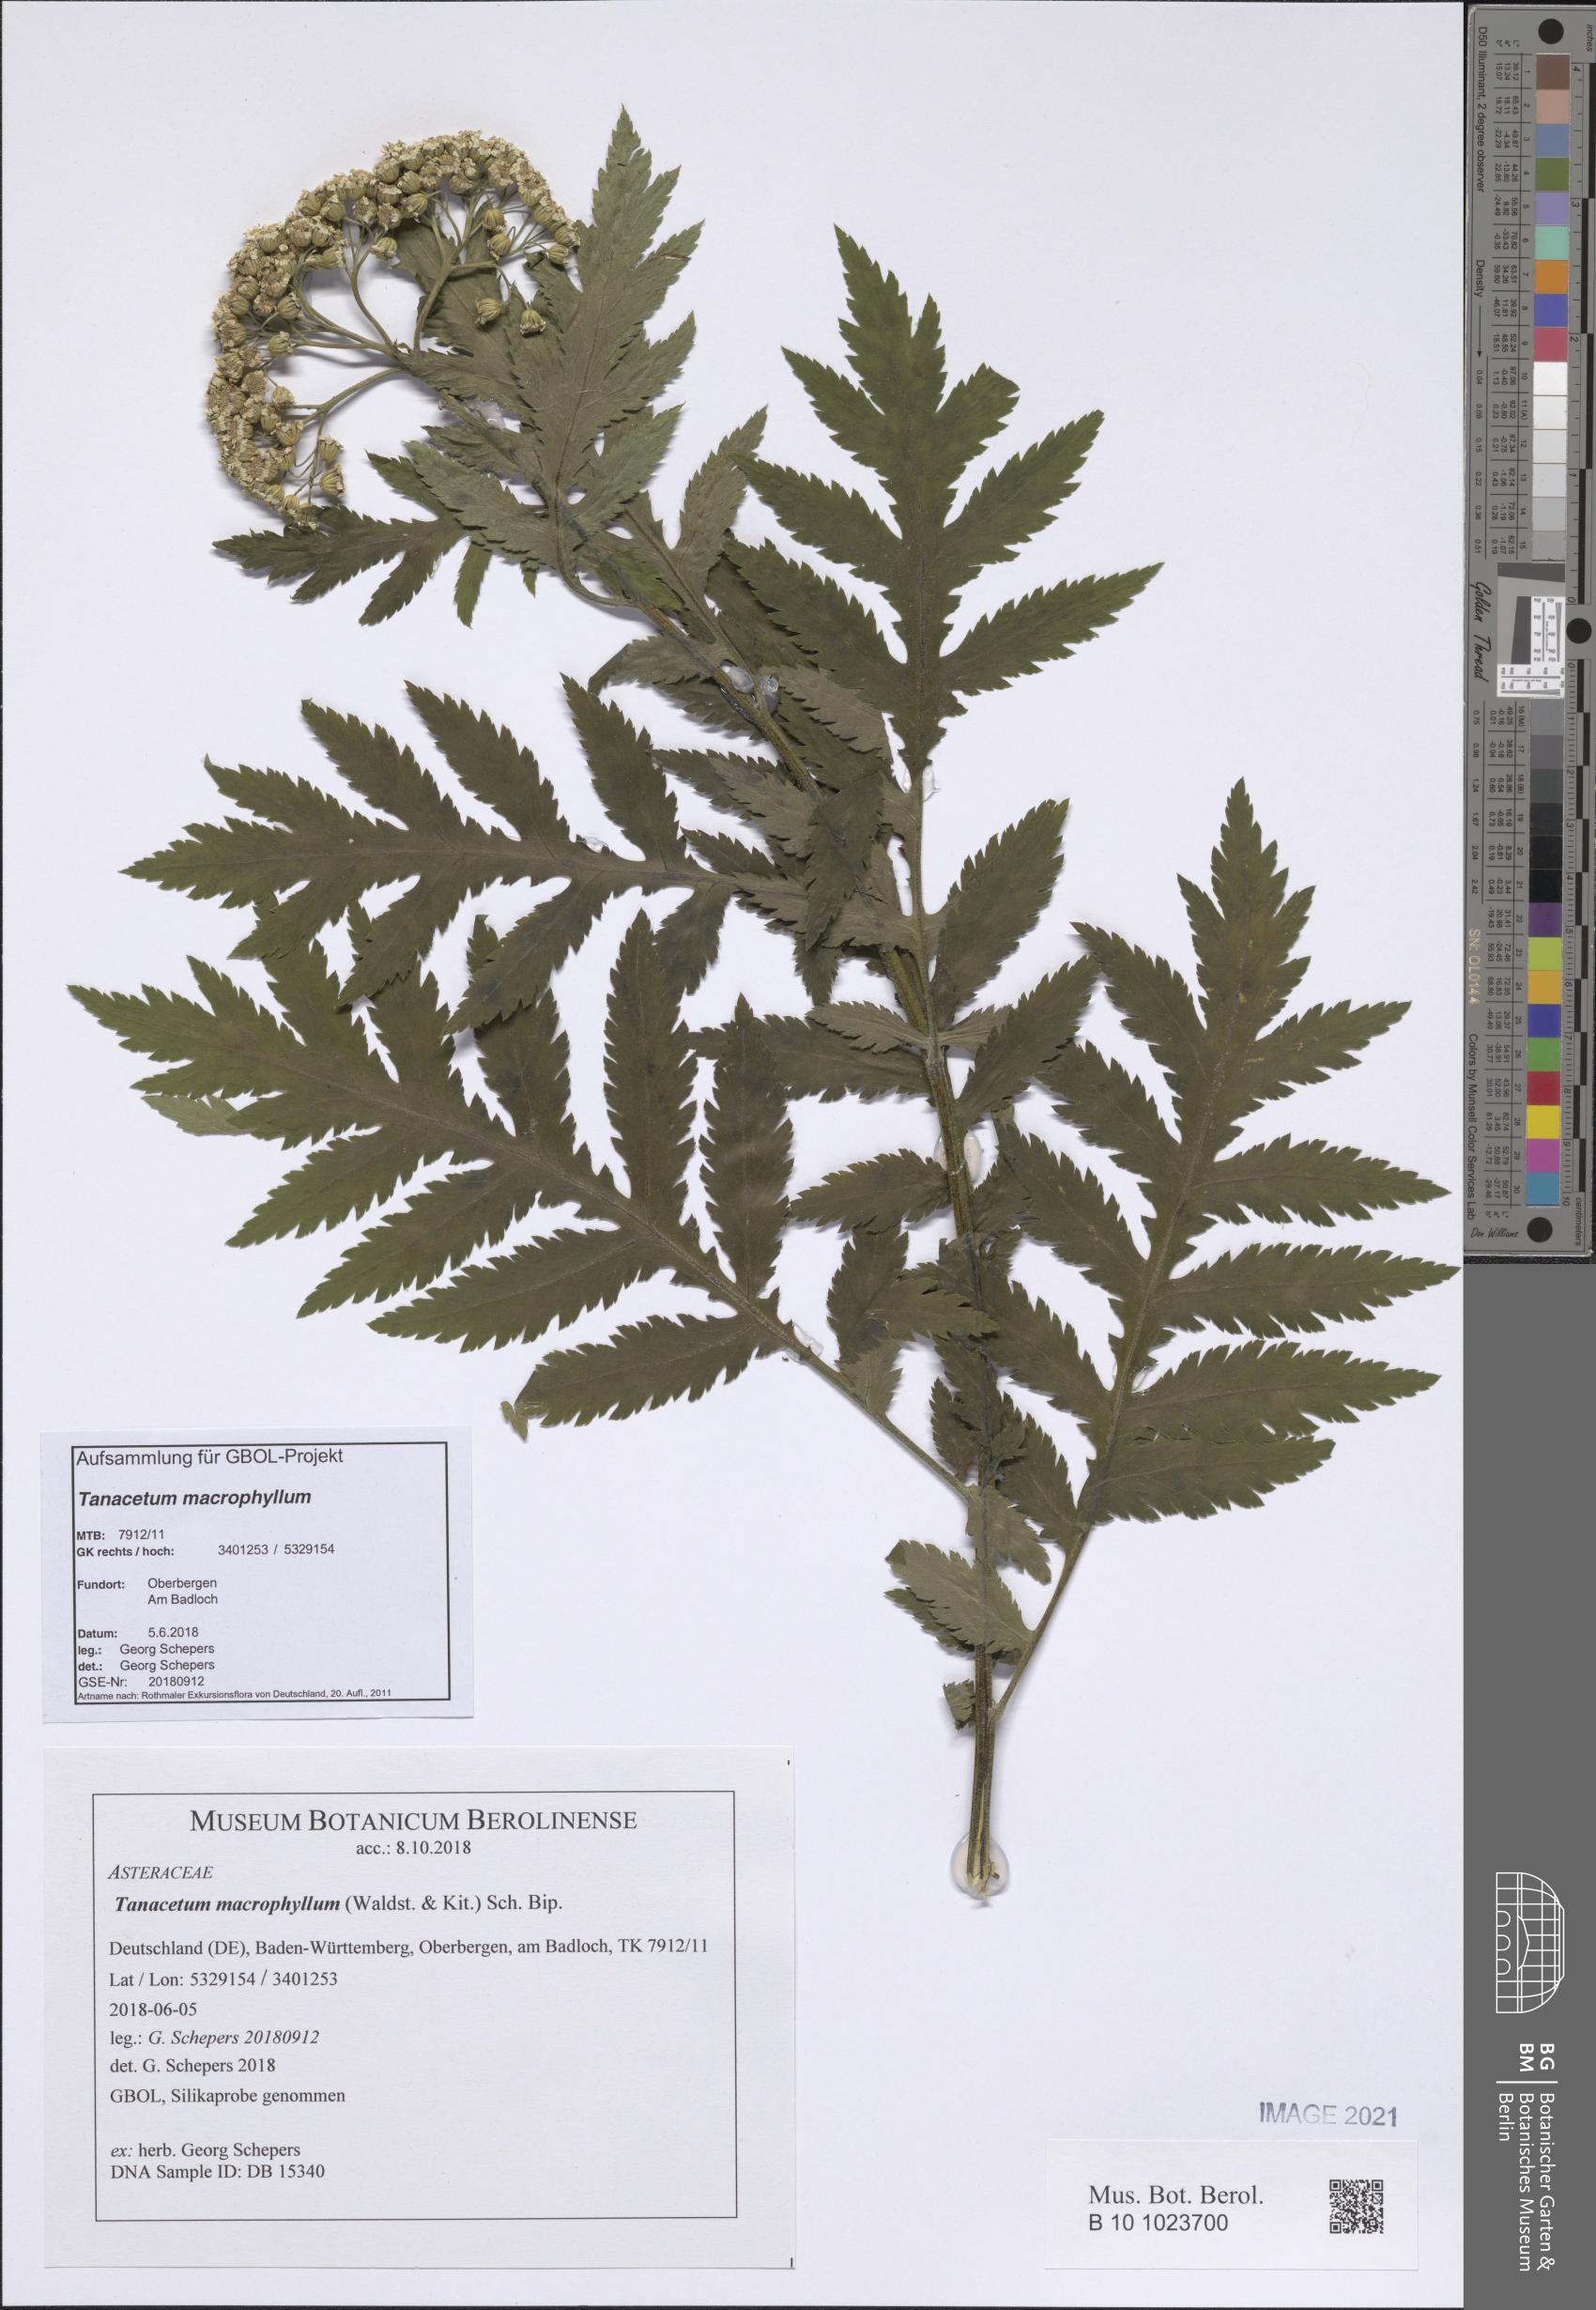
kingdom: Plantae
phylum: Tracheophyta
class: Magnoliopsida
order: Asterales
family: Asteraceae
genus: Tanacetum
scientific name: Tanacetum macrophyllum
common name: Rayed tansy
